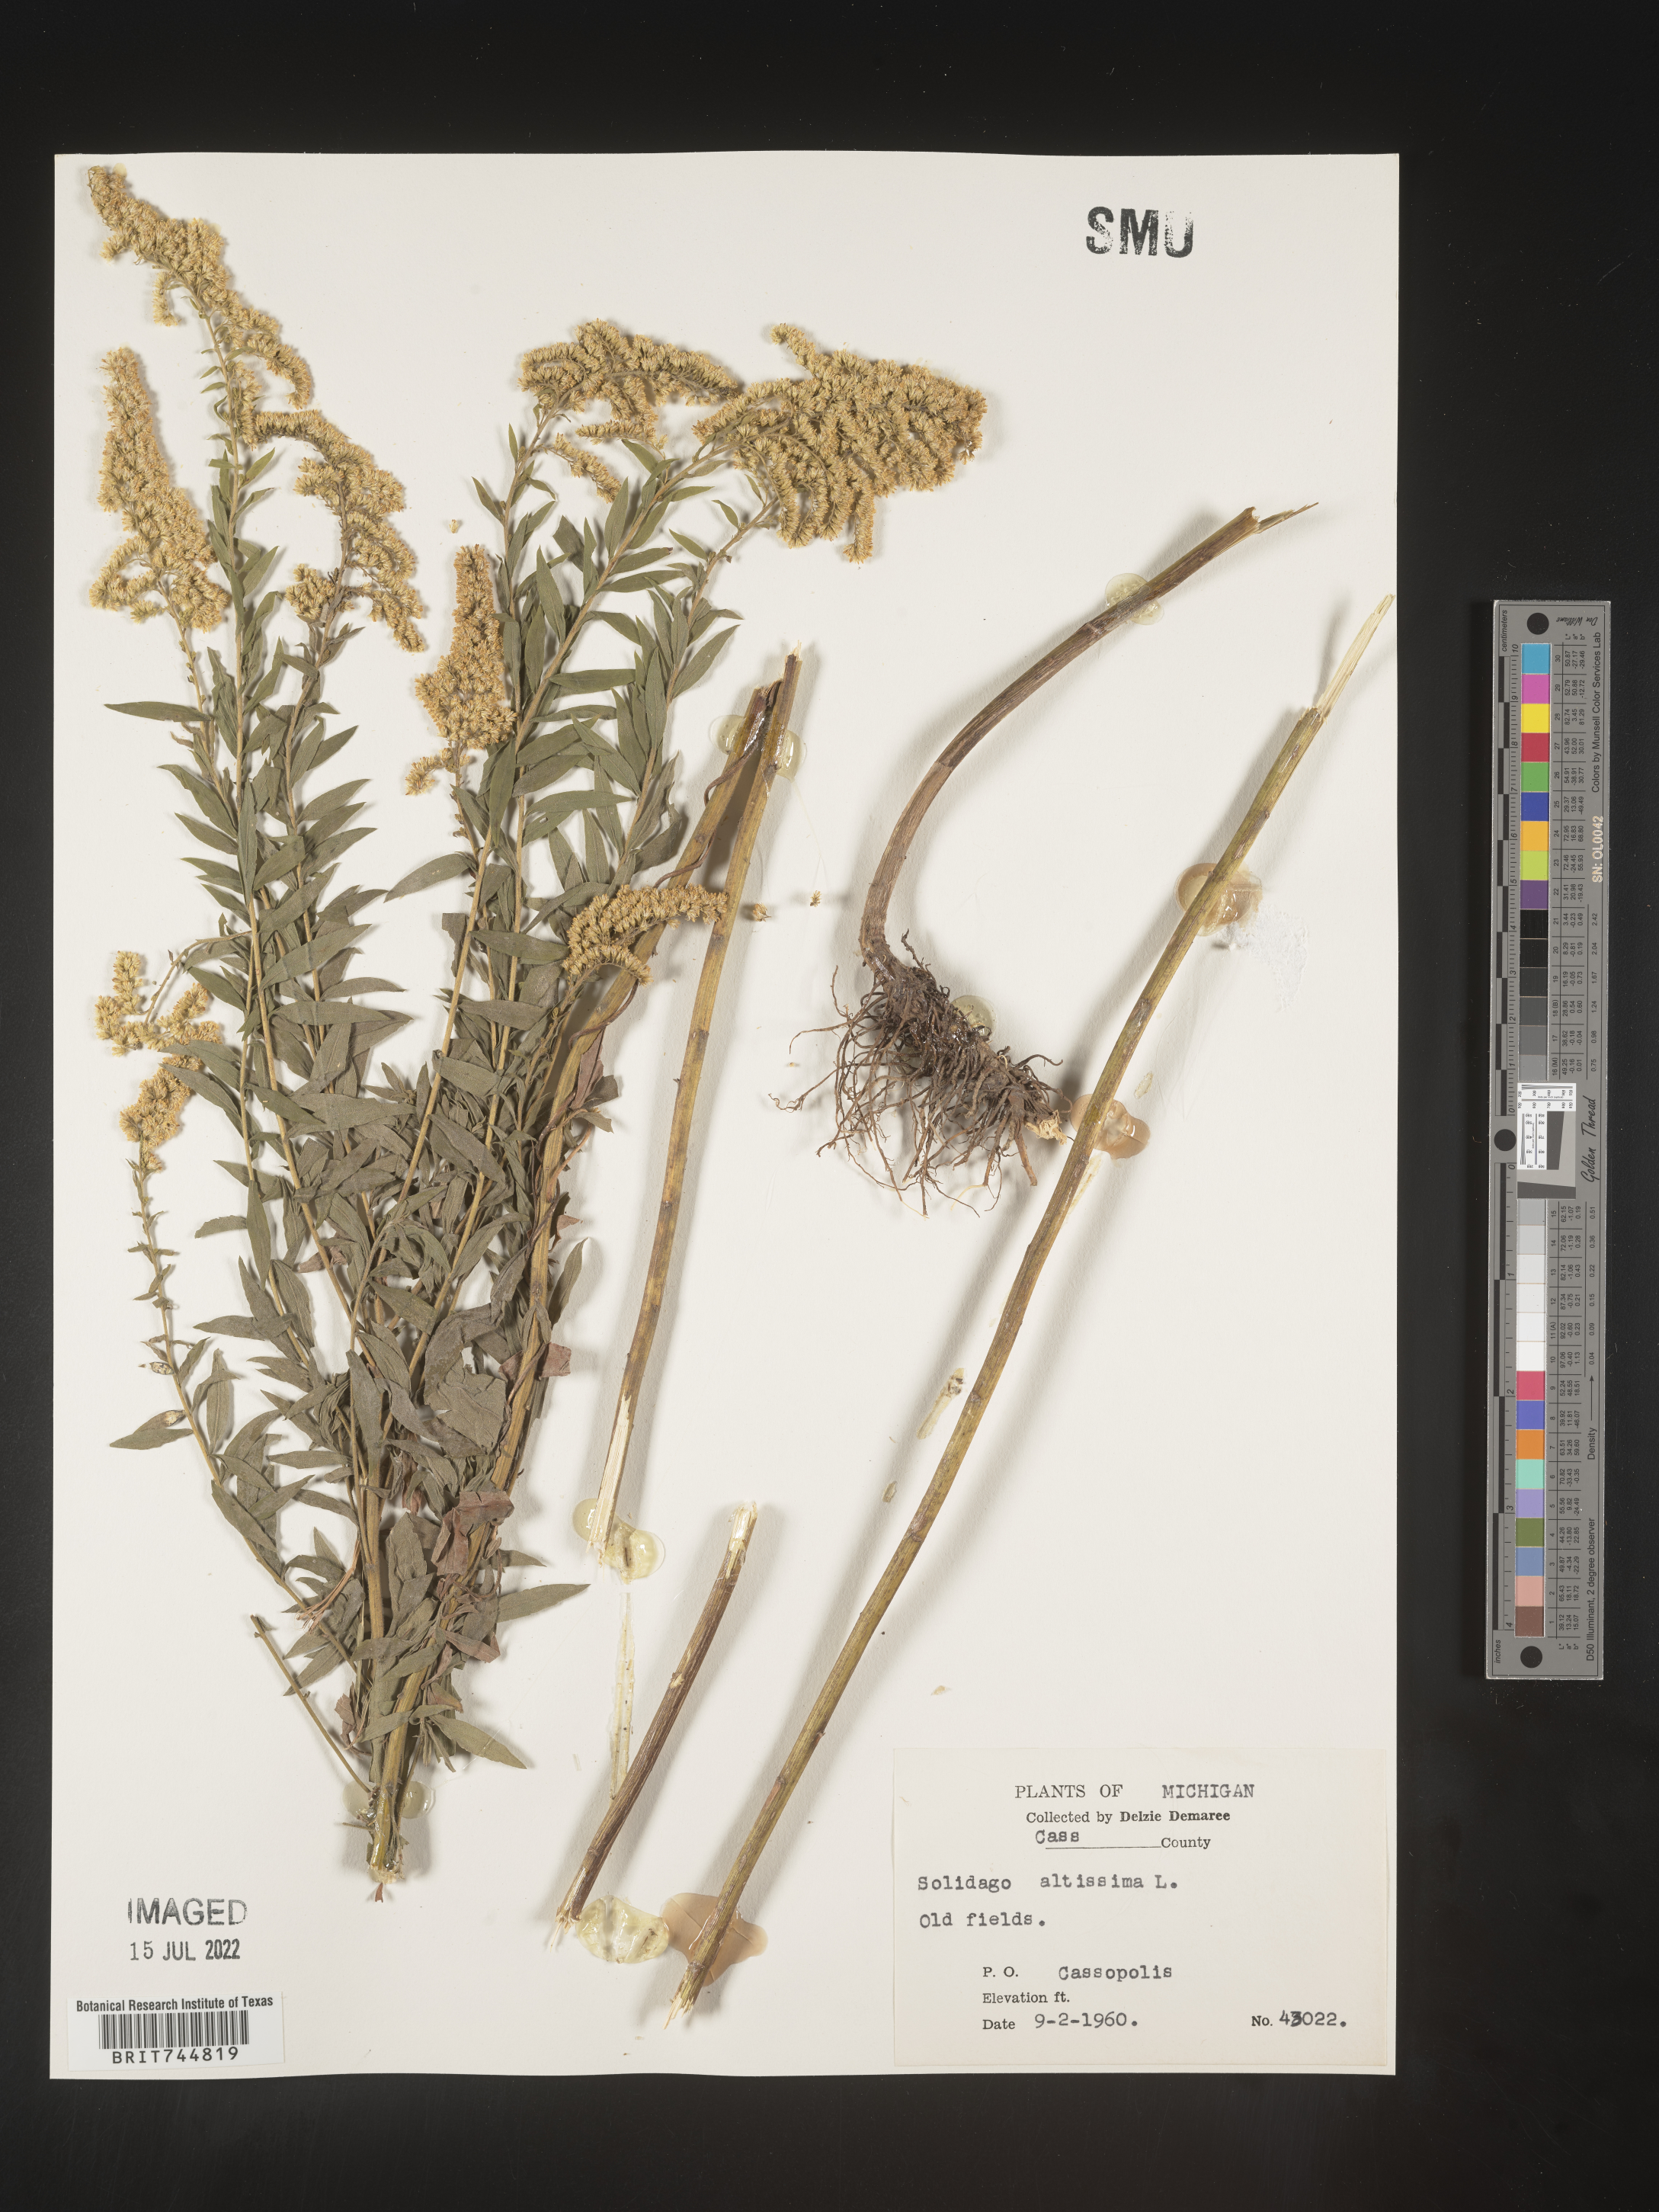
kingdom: Plantae
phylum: Tracheophyta
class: Magnoliopsida
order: Asterales
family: Asteraceae
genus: Solidago
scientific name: Solidago canadensis
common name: Canada goldenrod
